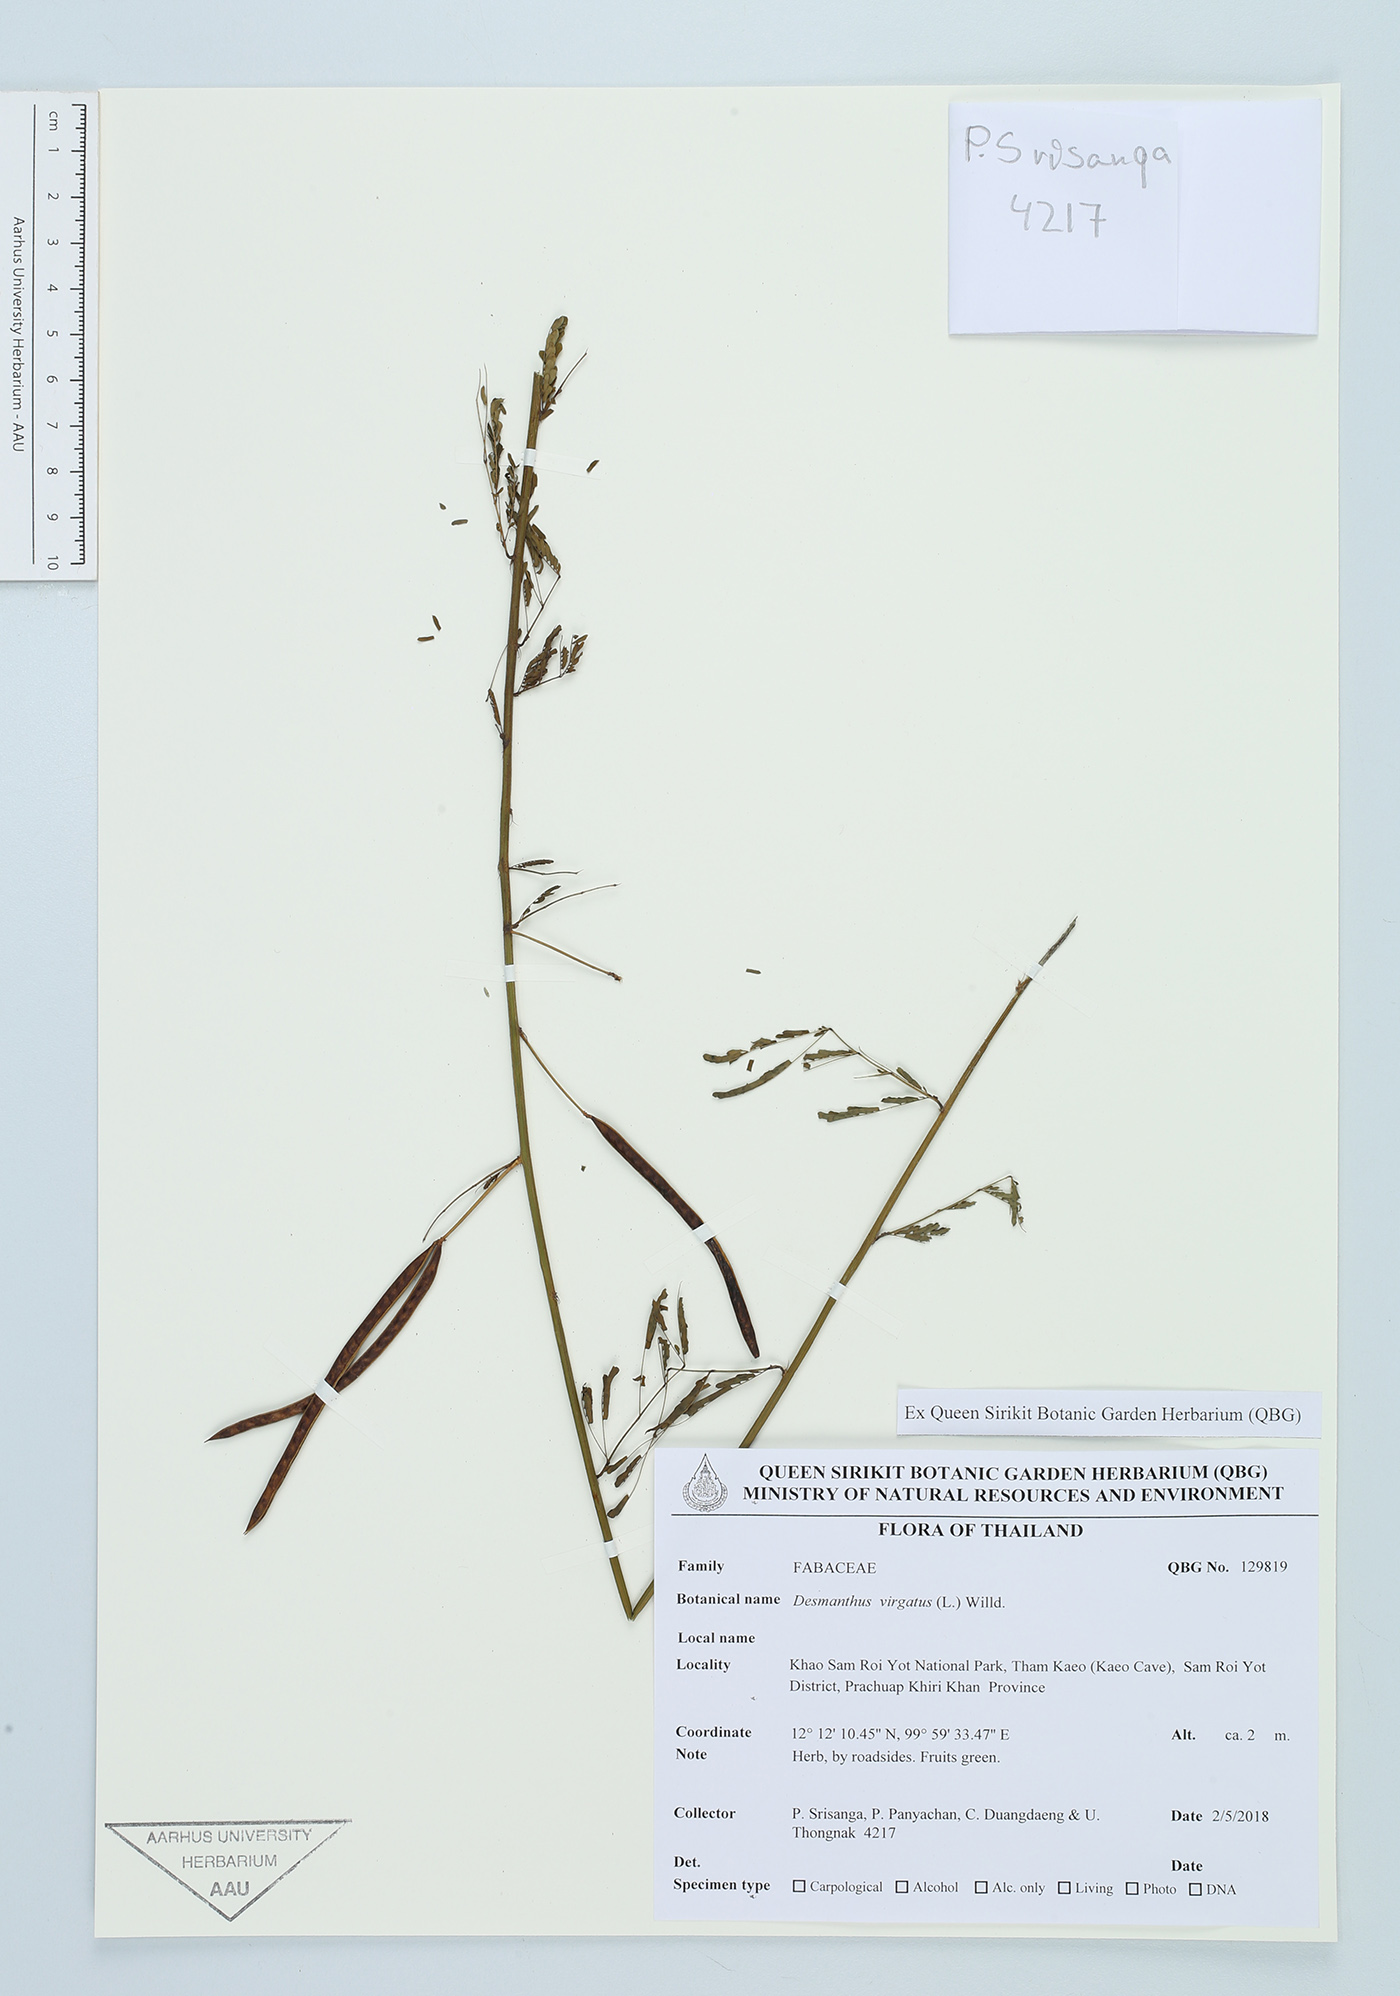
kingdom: Plantae
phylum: Tracheophyta
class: Magnoliopsida
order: Fabales
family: Fabaceae
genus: Desmanthus
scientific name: Desmanthus virgatus
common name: Wild tantan
